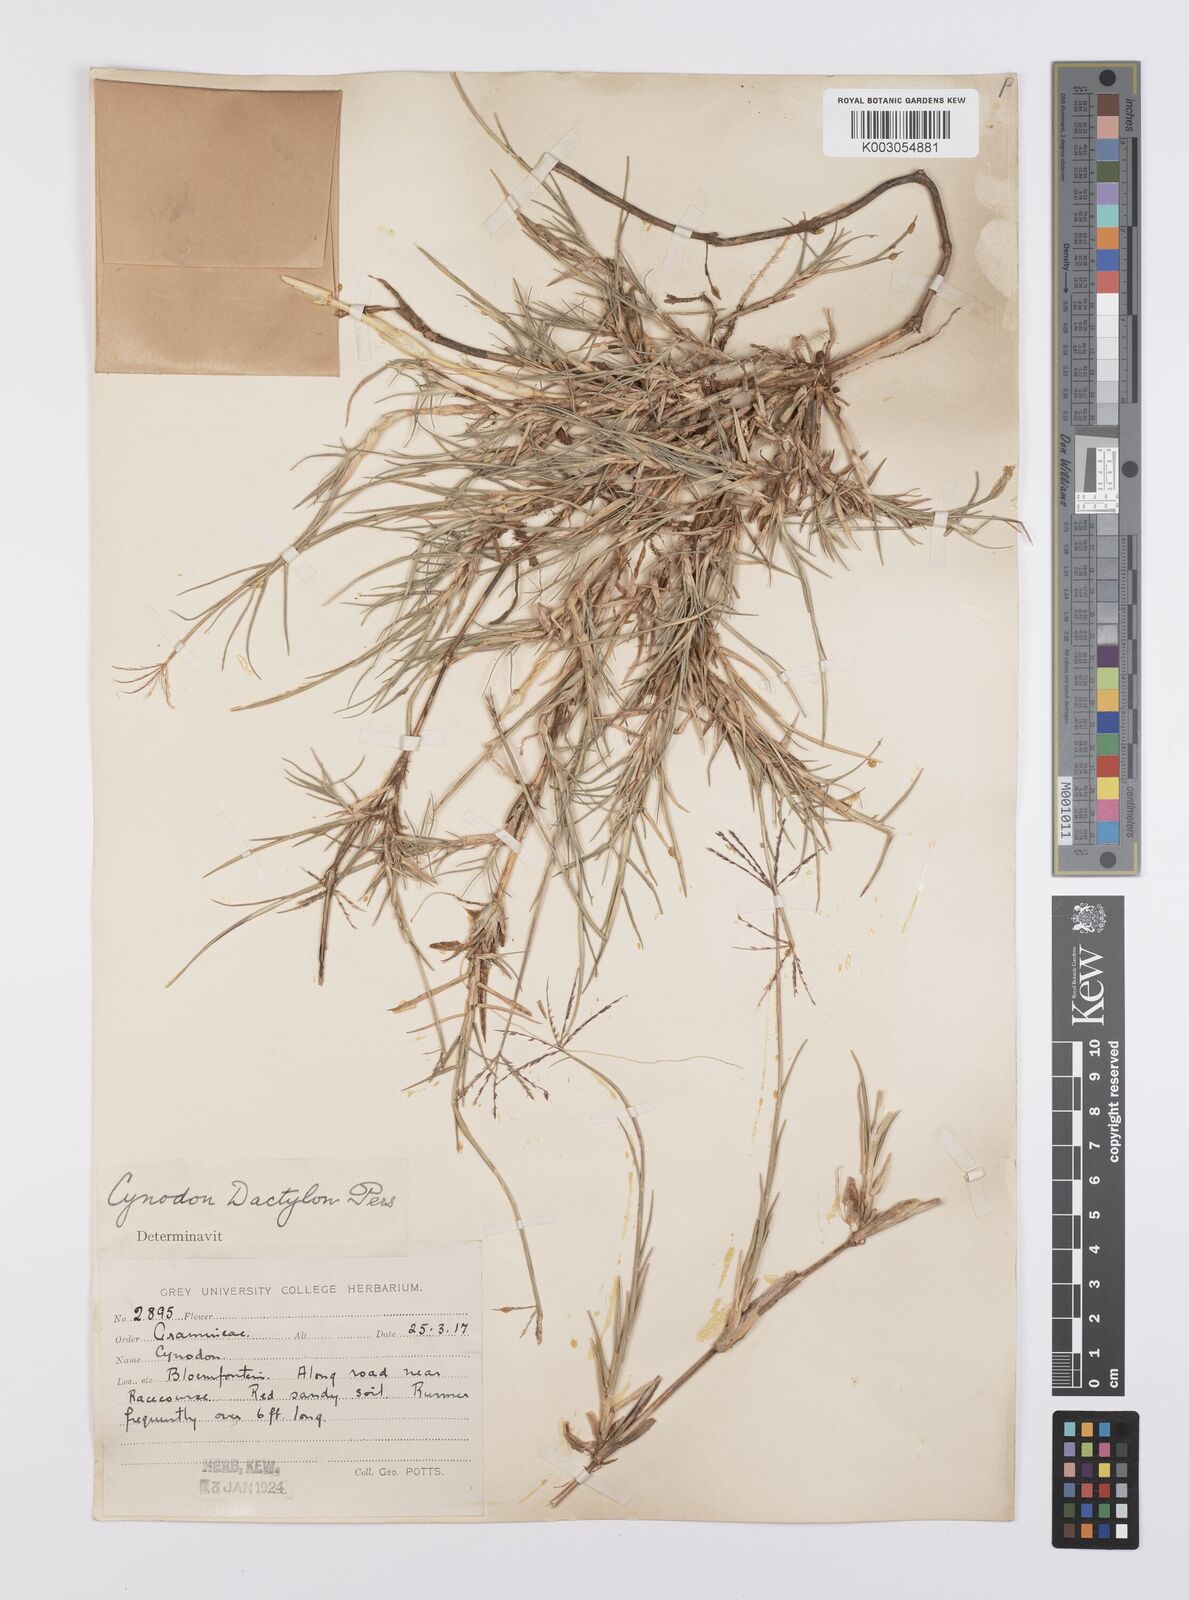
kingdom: Plantae
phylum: Tracheophyta
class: Liliopsida
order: Poales
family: Poaceae
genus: Cynodon
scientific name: Cynodon dactylon
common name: Bermuda grass
